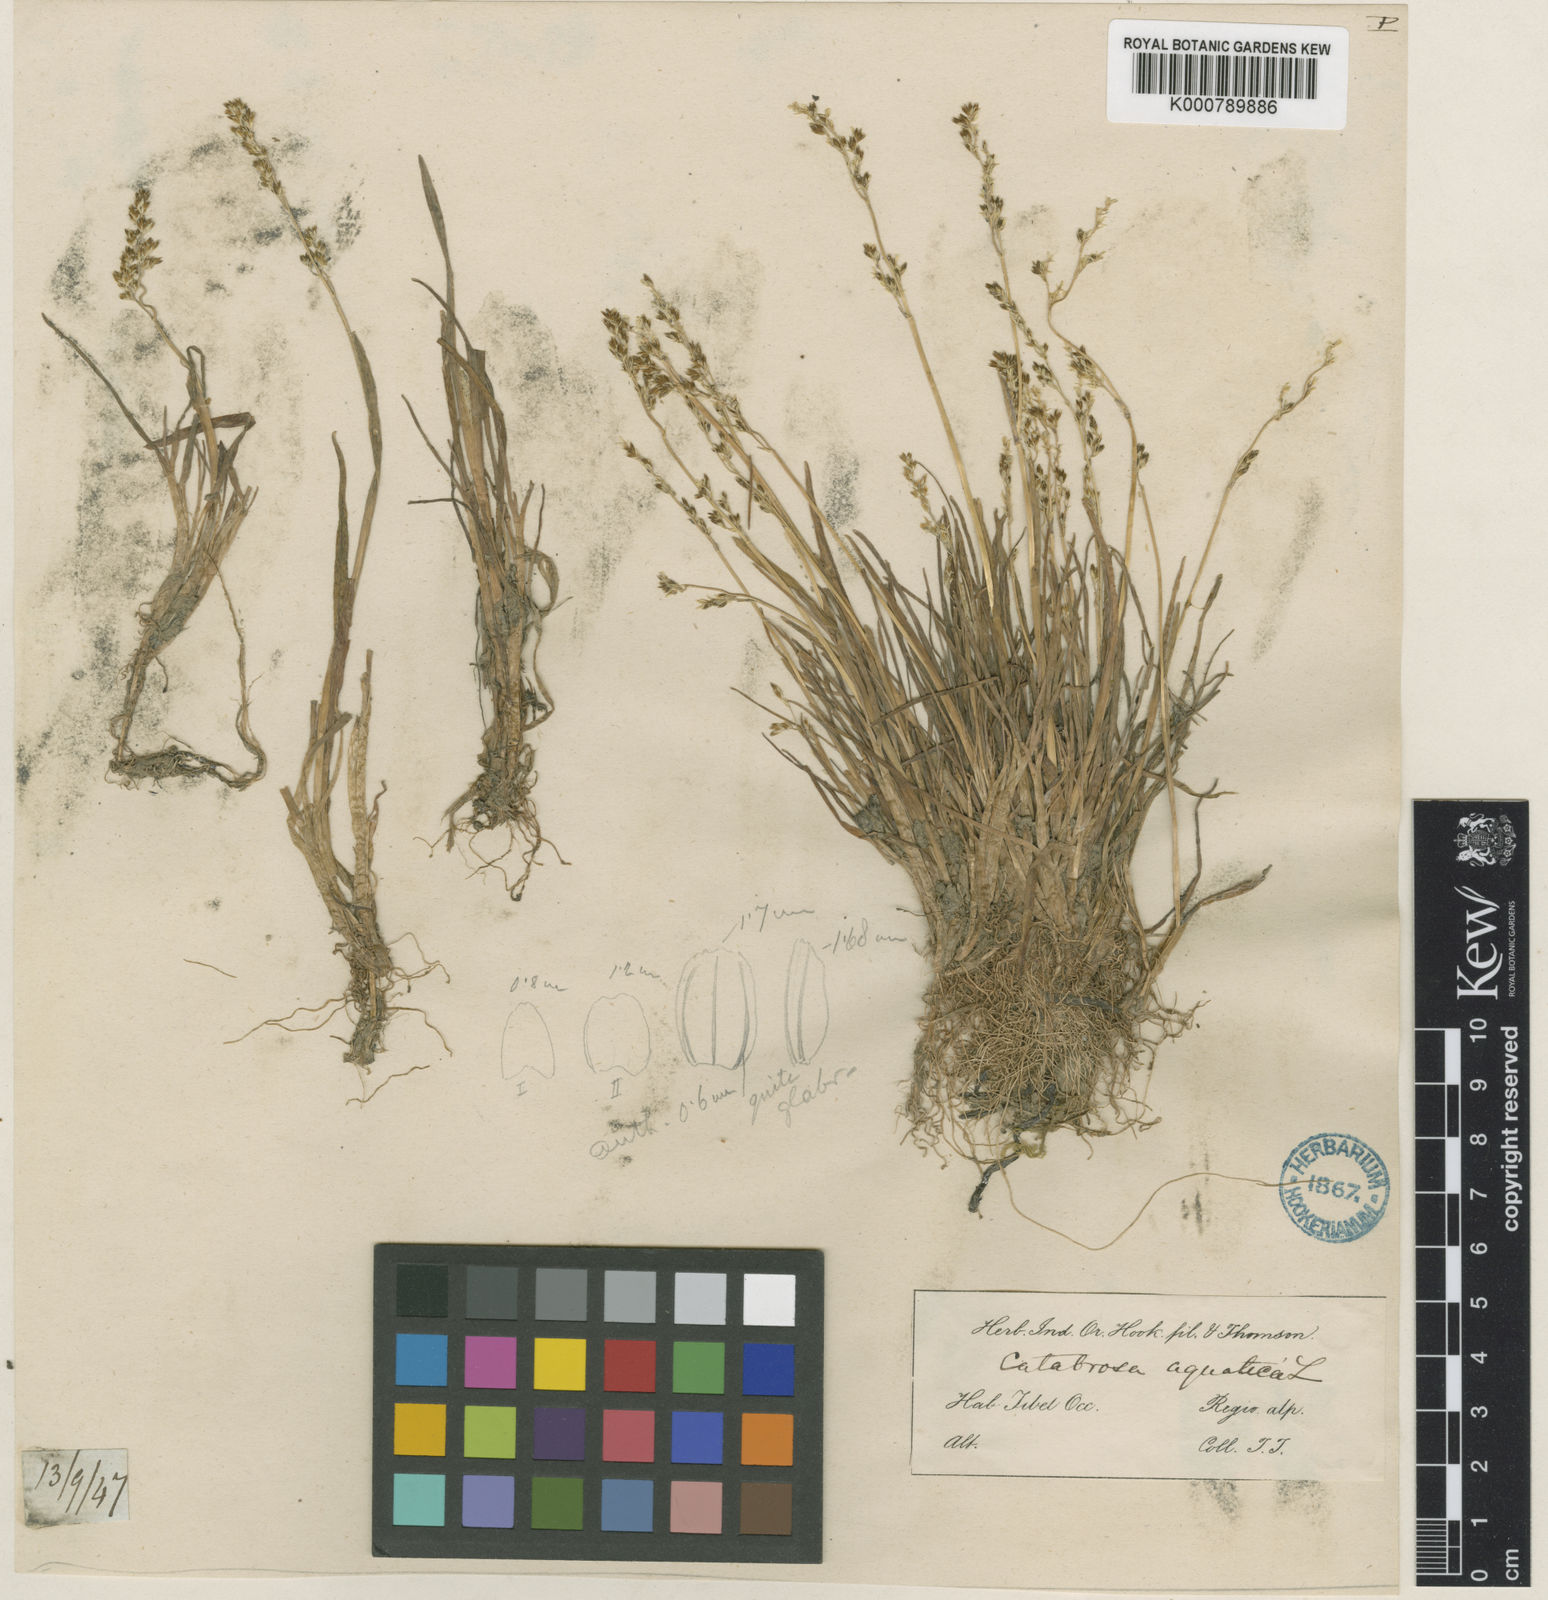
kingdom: Plantae
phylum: Tracheophyta
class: Liliopsida
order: Poales
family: Poaceae
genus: Catabrosa
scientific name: Catabrosa aquatica
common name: Whorl-grass
